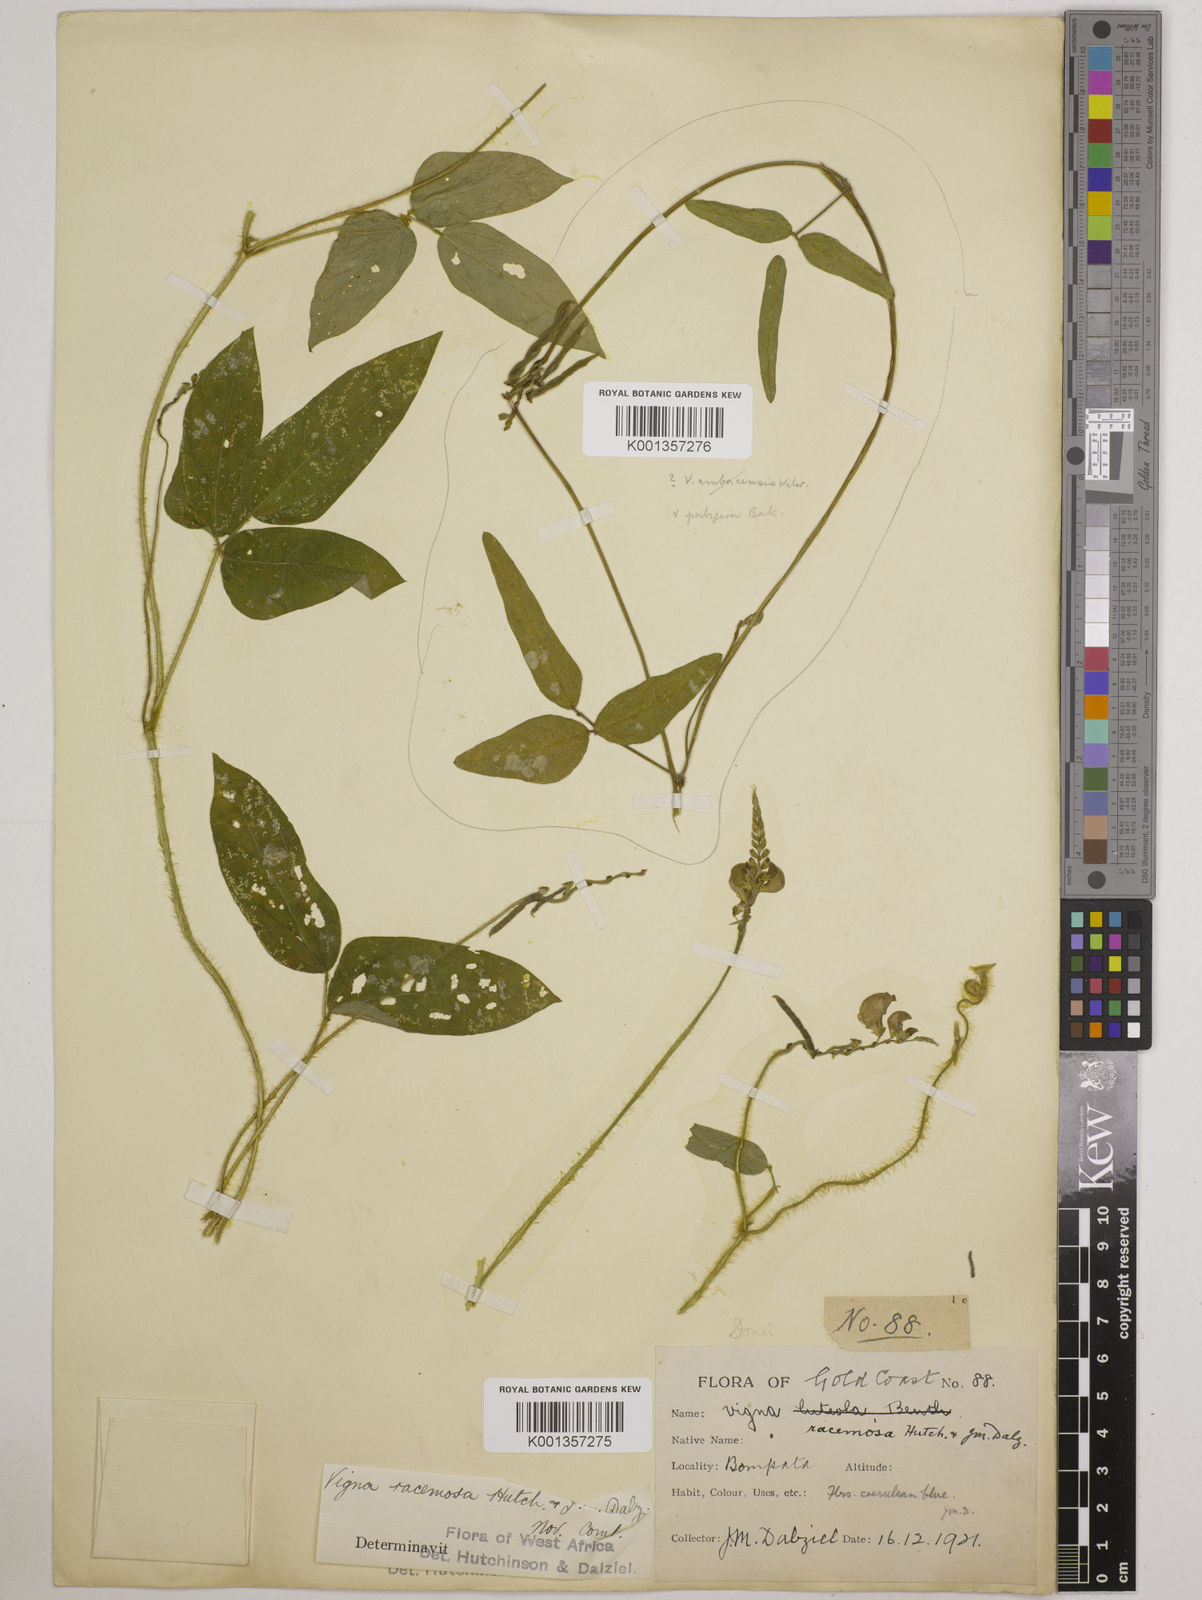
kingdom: Plantae
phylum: Tracheophyta
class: Magnoliopsida
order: Fabales
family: Fabaceae
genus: Vigna
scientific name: Vigna racemosa
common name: Beans not eaten
